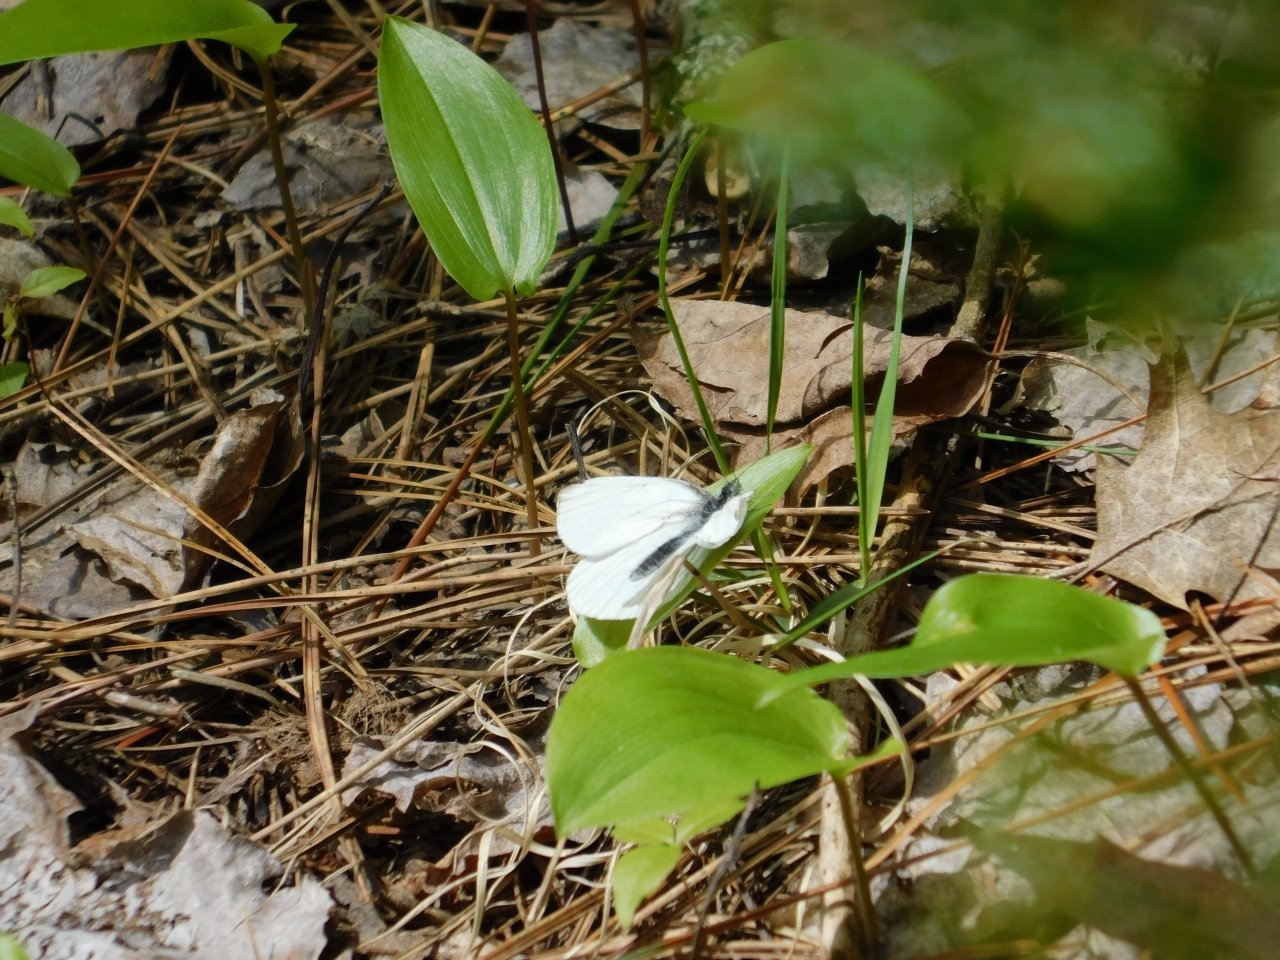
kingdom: Animalia
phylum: Arthropoda
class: Insecta
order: Lepidoptera
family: Pieridae
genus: Pieris
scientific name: Pieris oleracea
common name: Mustard White
